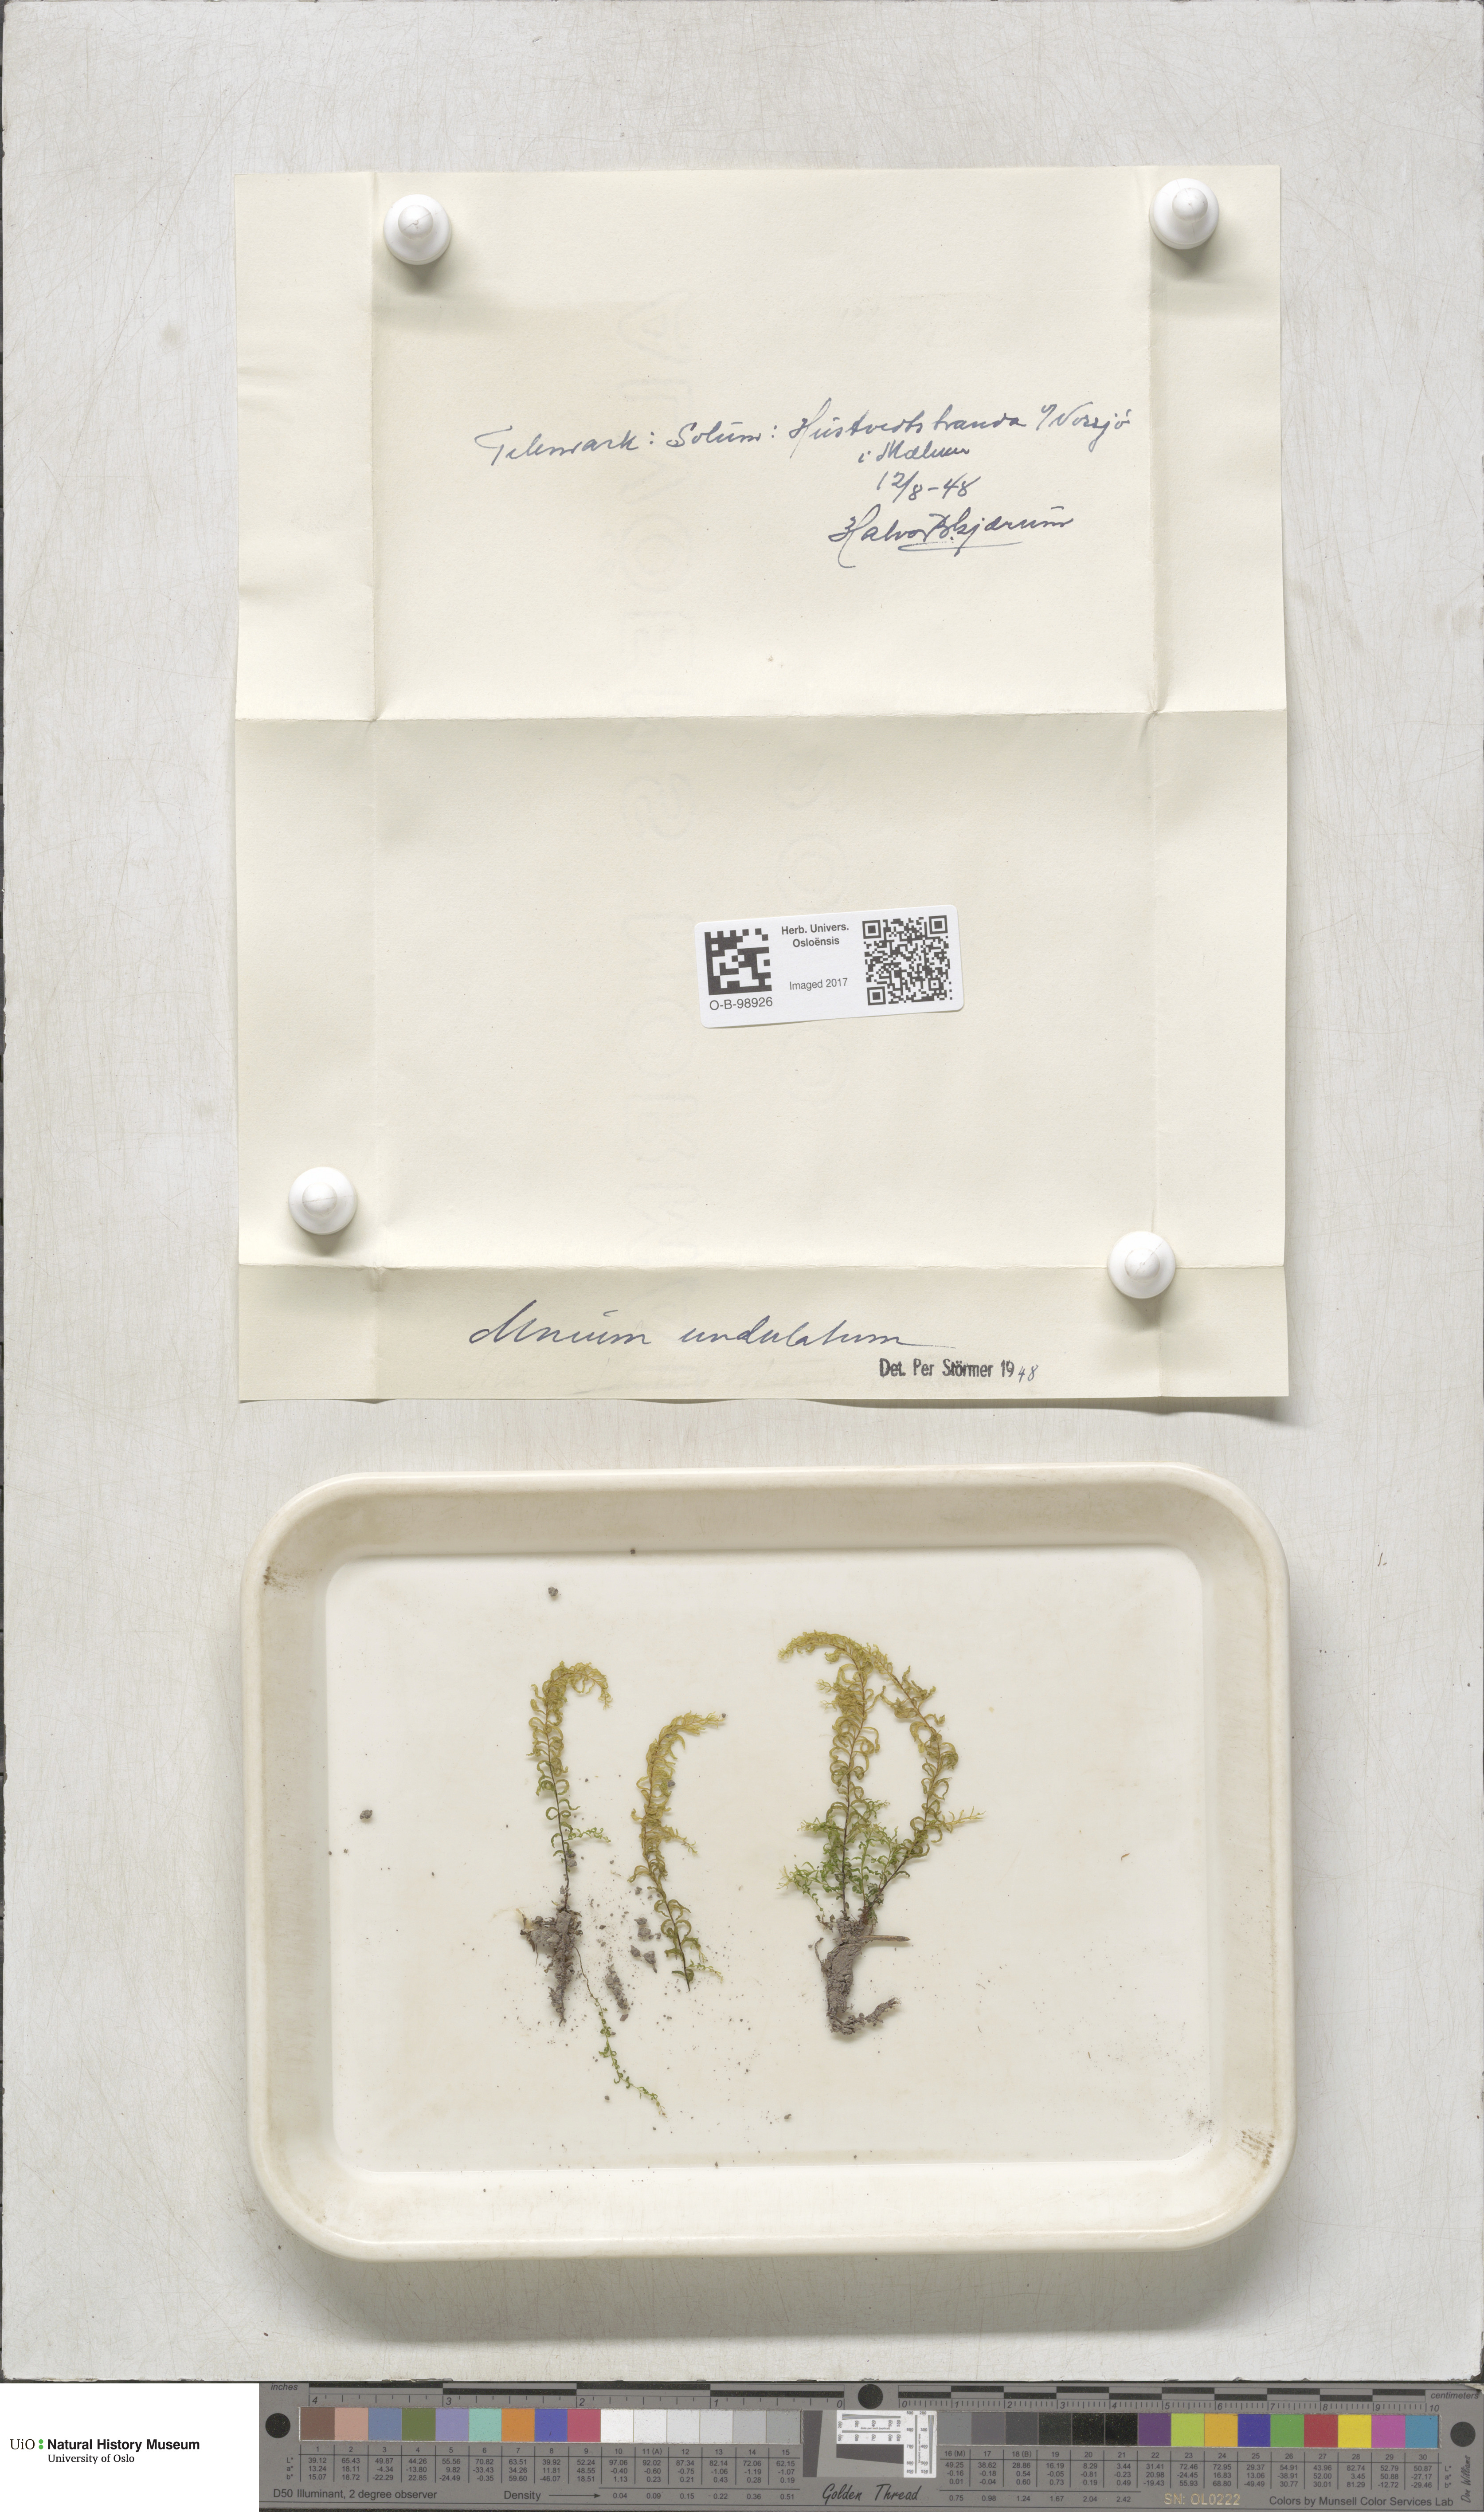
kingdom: Plantae
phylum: Bryophyta
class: Bryopsida
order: Bryales
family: Mniaceae
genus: Plagiomnium
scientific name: Plagiomnium undulatum
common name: Hart's-tongue thyme-moss
